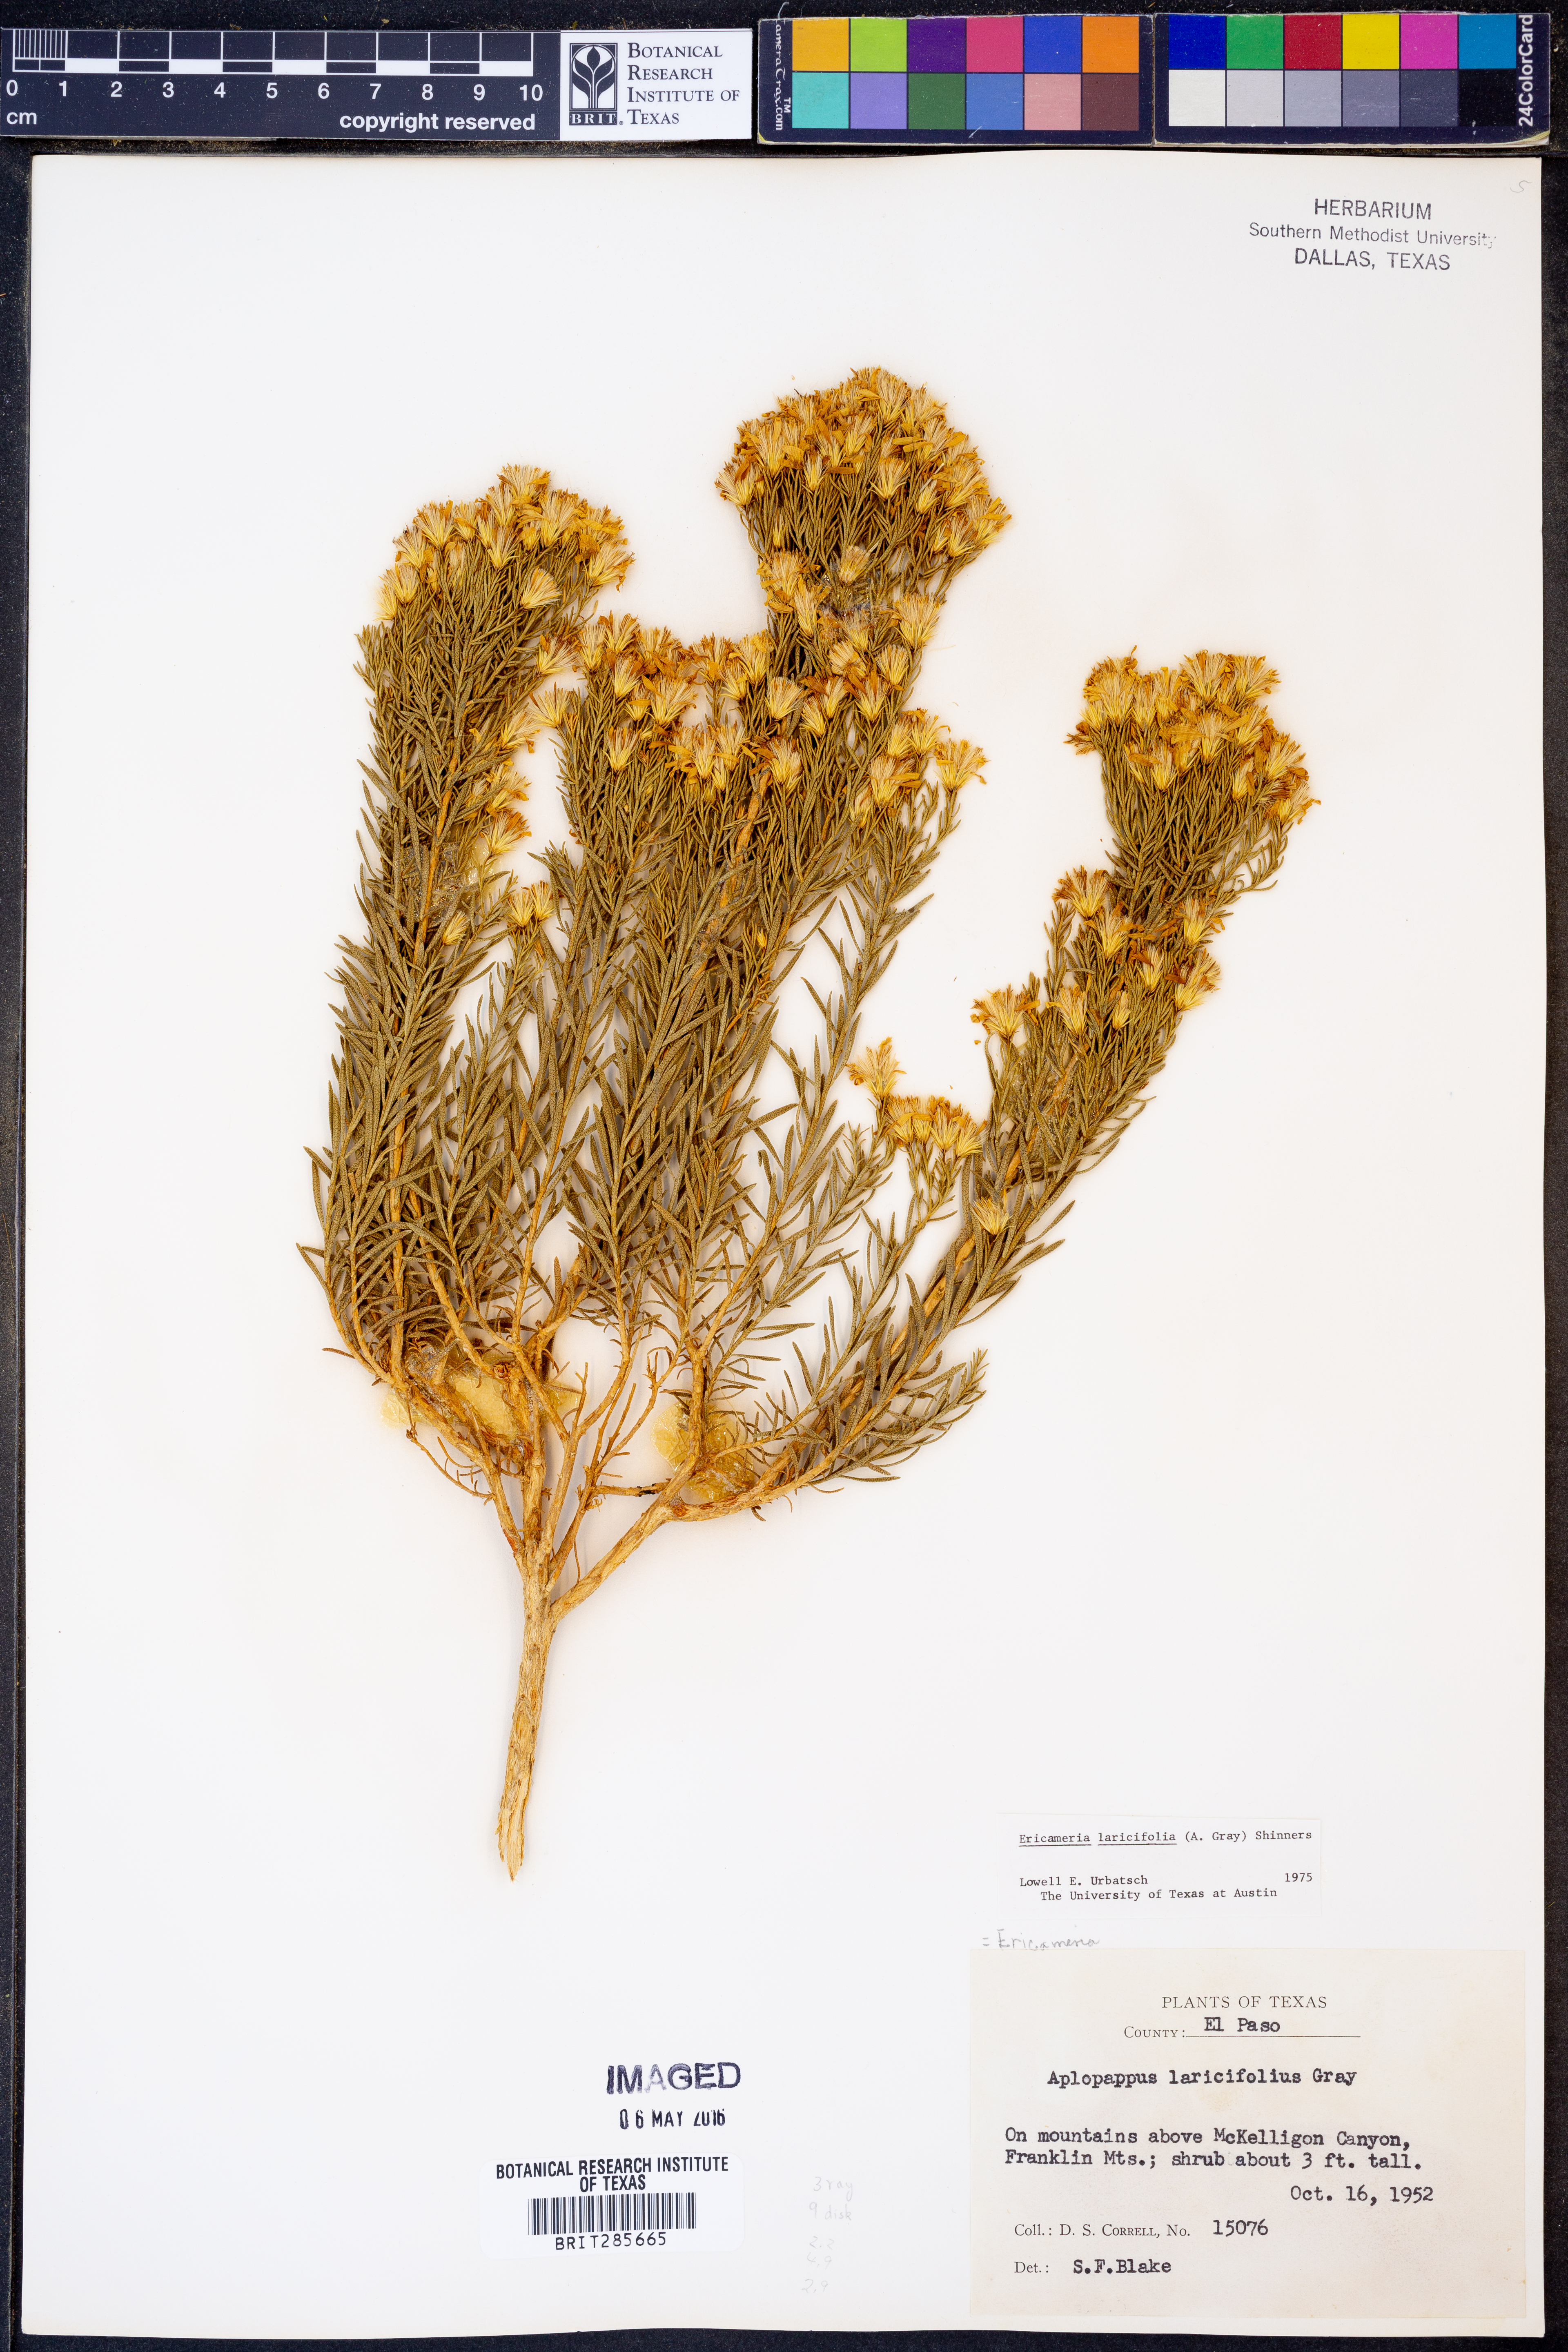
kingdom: Plantae
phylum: Tracheophyta
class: Magnoliopsida
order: Asterales
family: Asteraceae
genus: Ericameria
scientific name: Ericameria laricifolia
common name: Turpentine-bush
